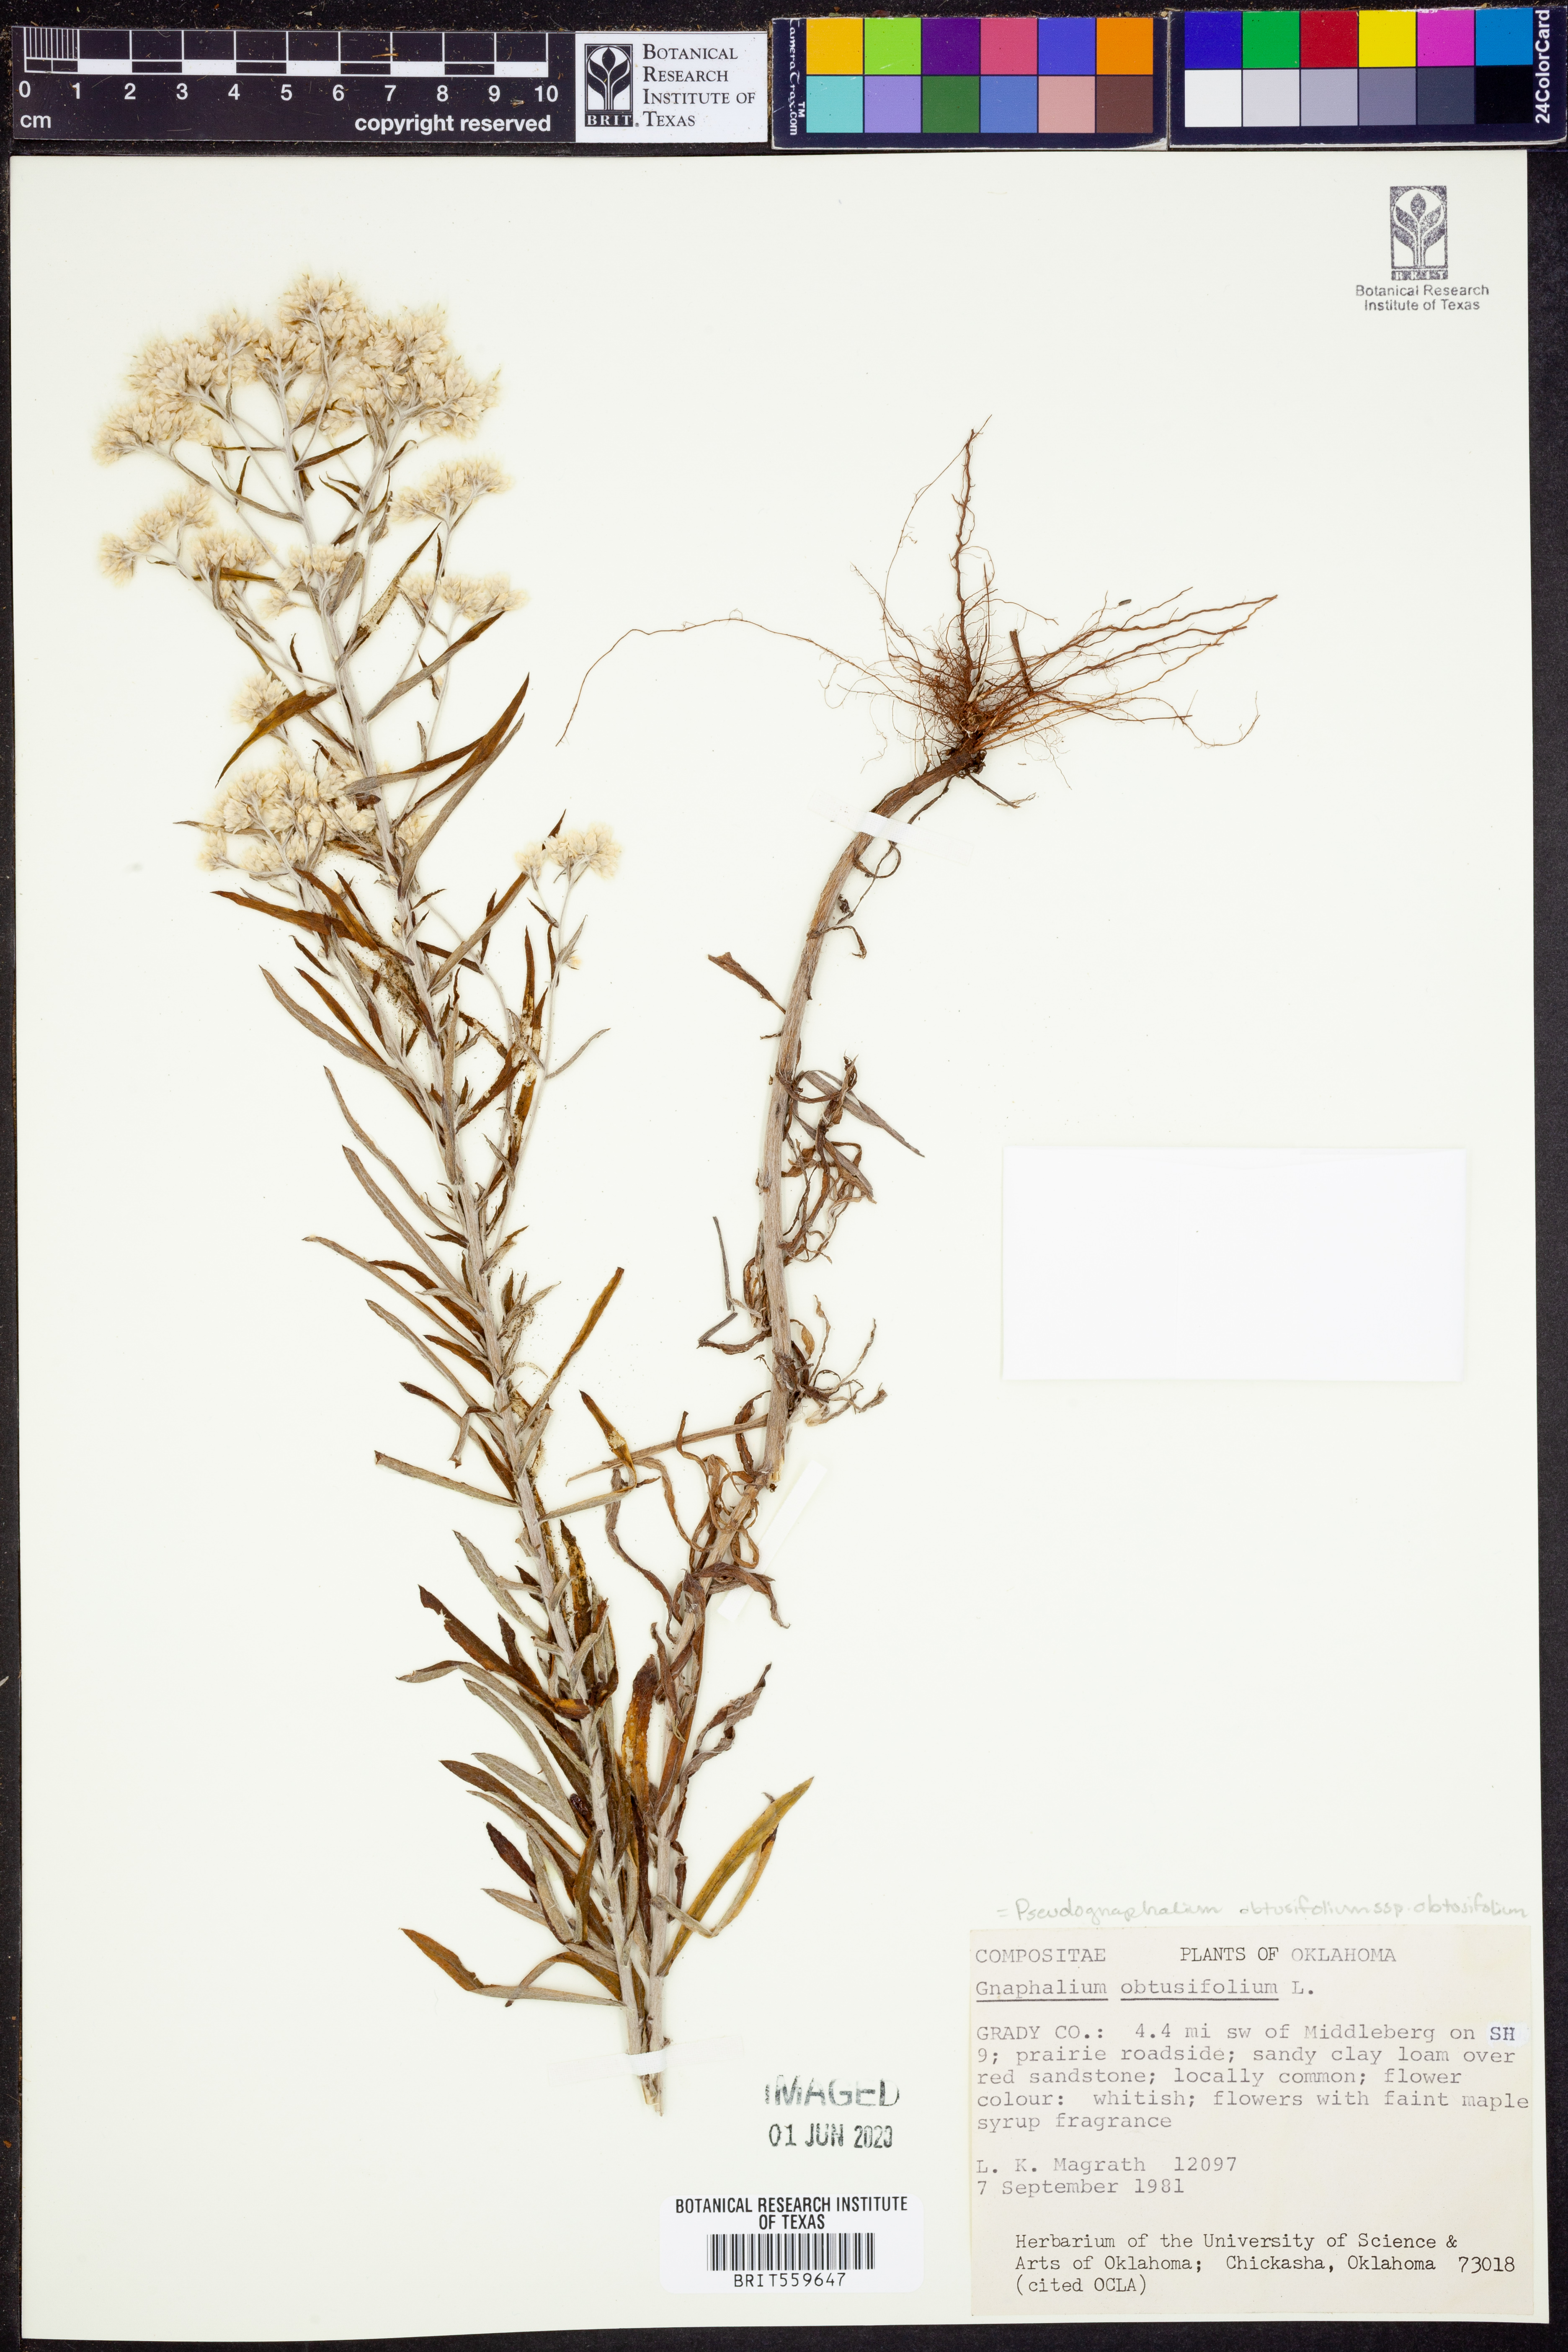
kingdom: Plantae
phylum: Tracheophyta
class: Magnoliopsida
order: Asterales
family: Asteraceae
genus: Pseudognaphalium
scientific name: Pseudognaphalium obtusifolium
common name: Eastern rabbit-tobacco
